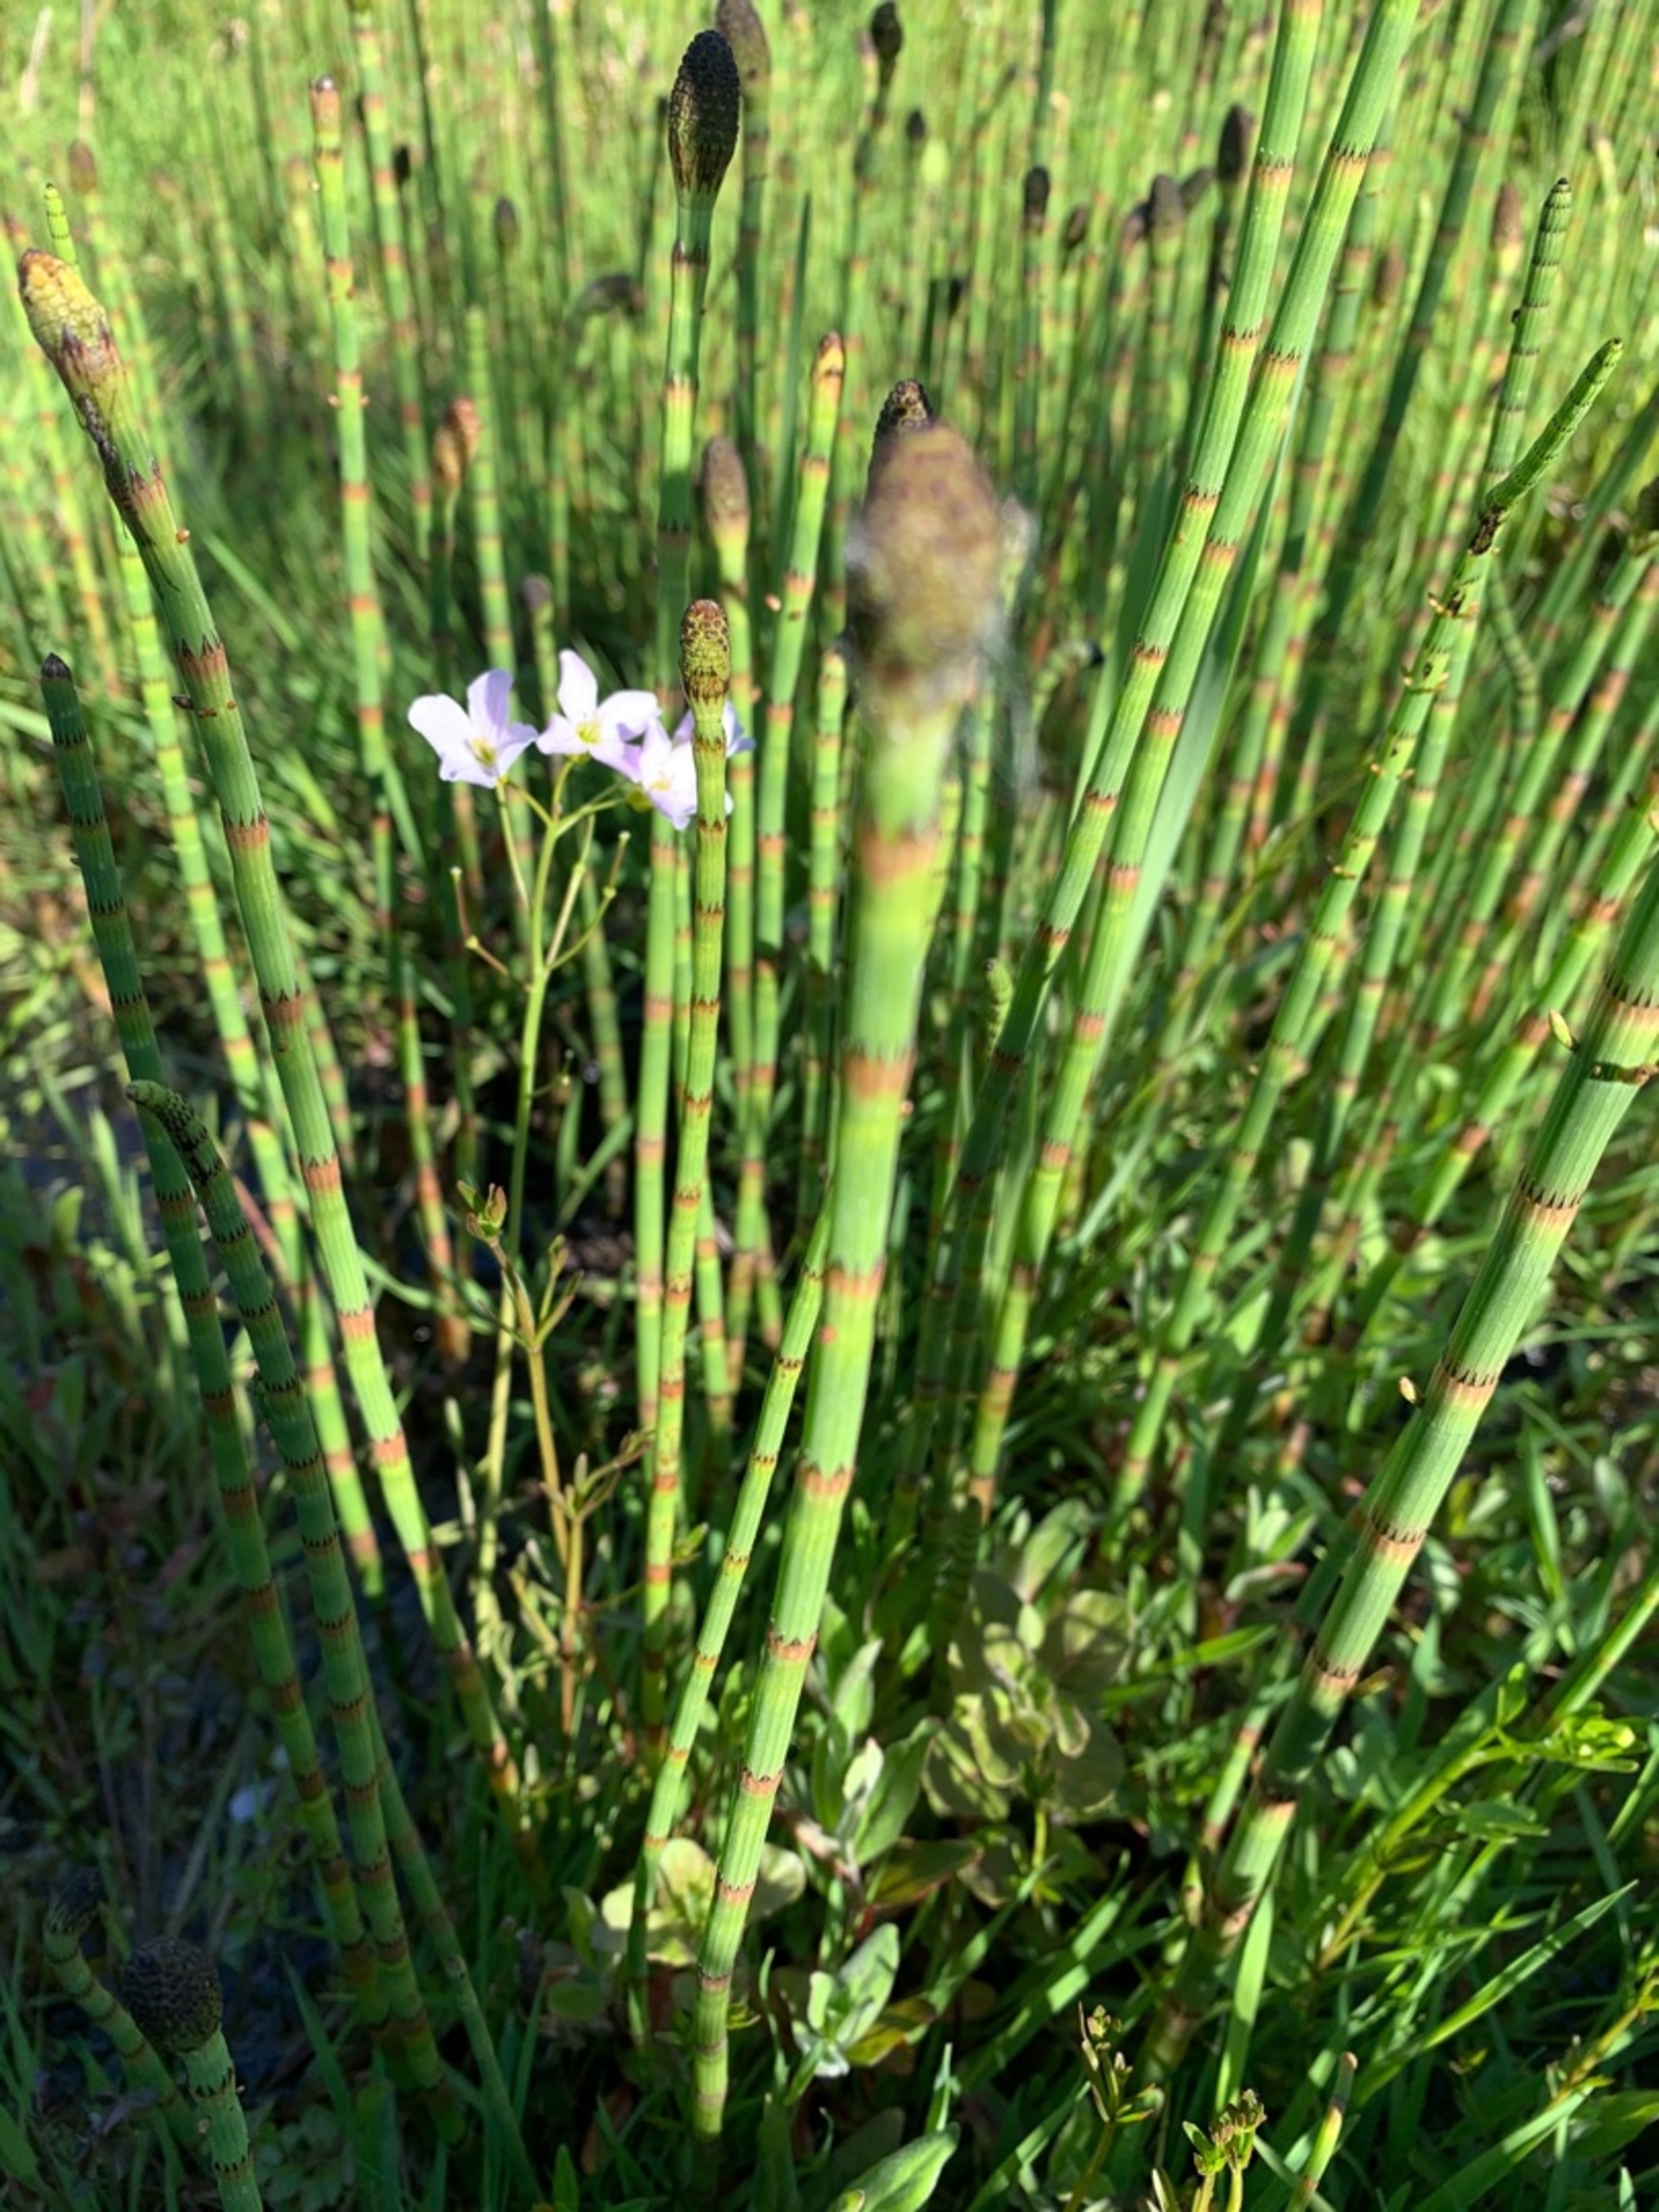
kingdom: Plantae
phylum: Tracheophyta
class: Magnoliopsida
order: Brassicales
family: Brassicaceae
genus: Cardamine
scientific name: Cardamine pratensis
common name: Engkarse
